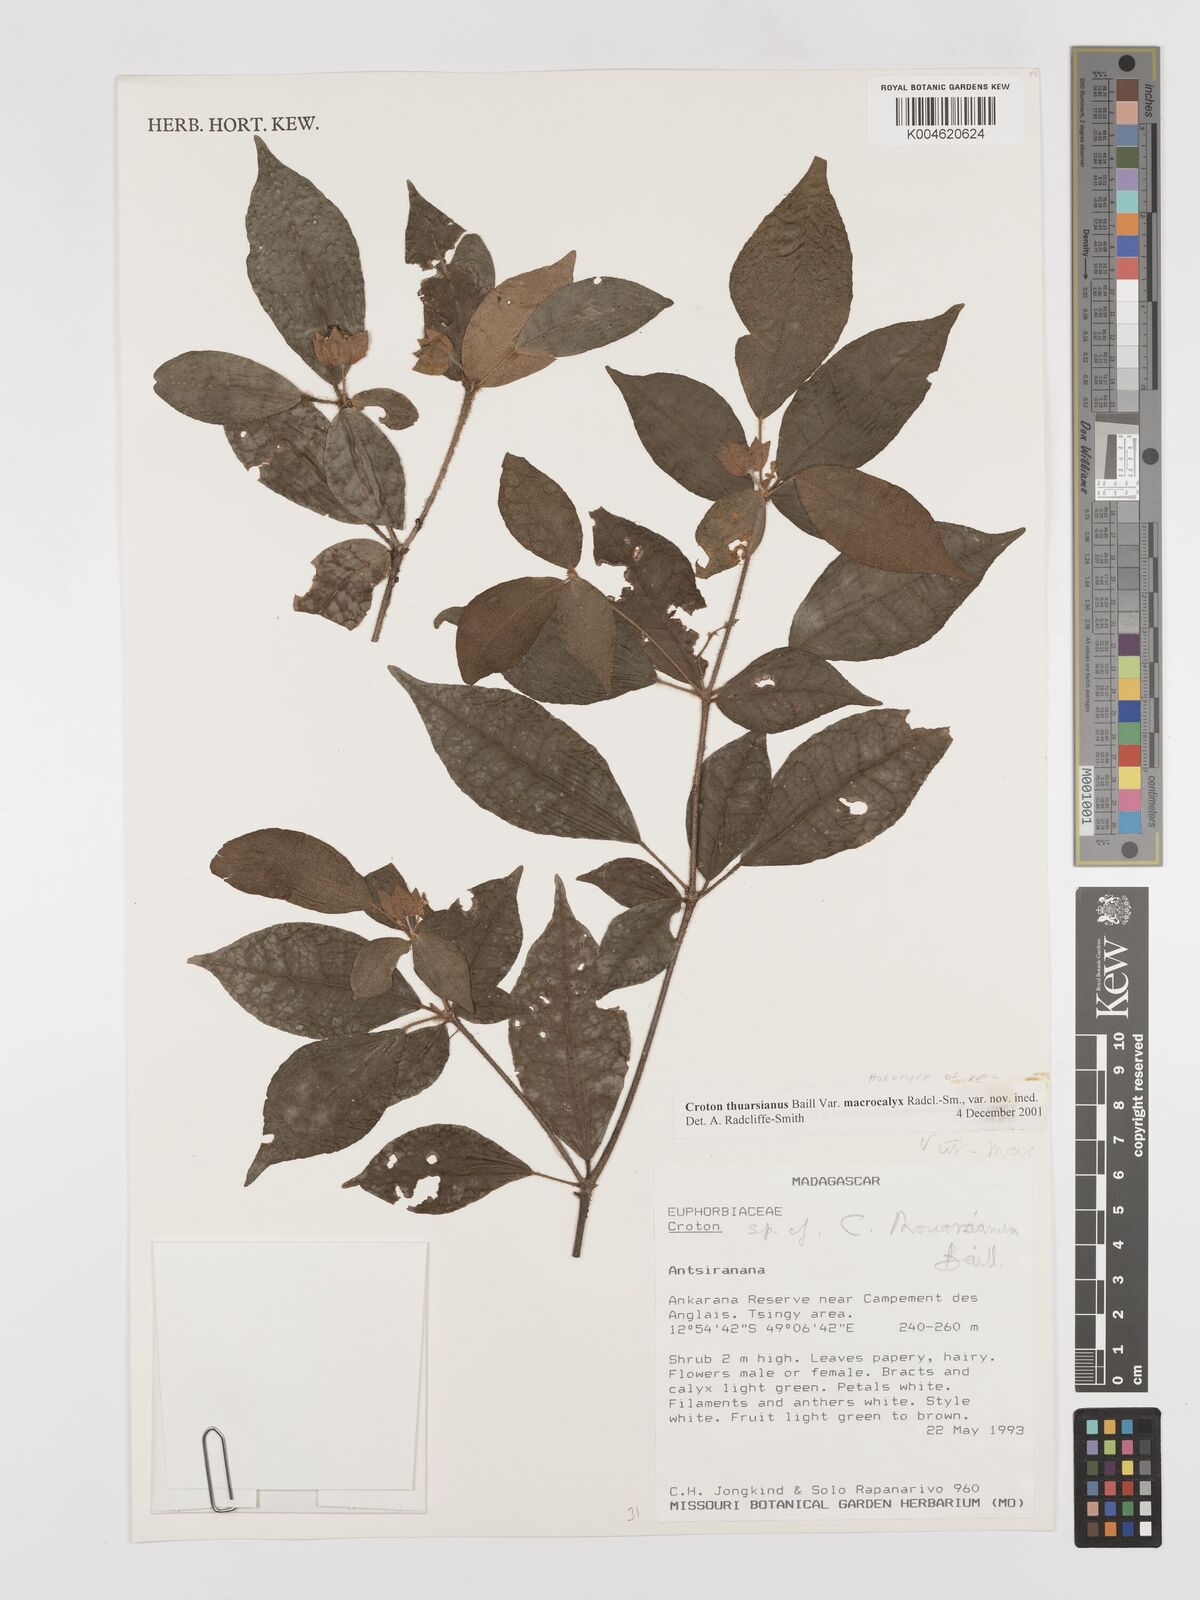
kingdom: Plantae
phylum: Tracheophyta
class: Magnoliopsida
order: Malpighiales
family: Euphorbiaceae
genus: Croton
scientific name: Croton thouarsianus
